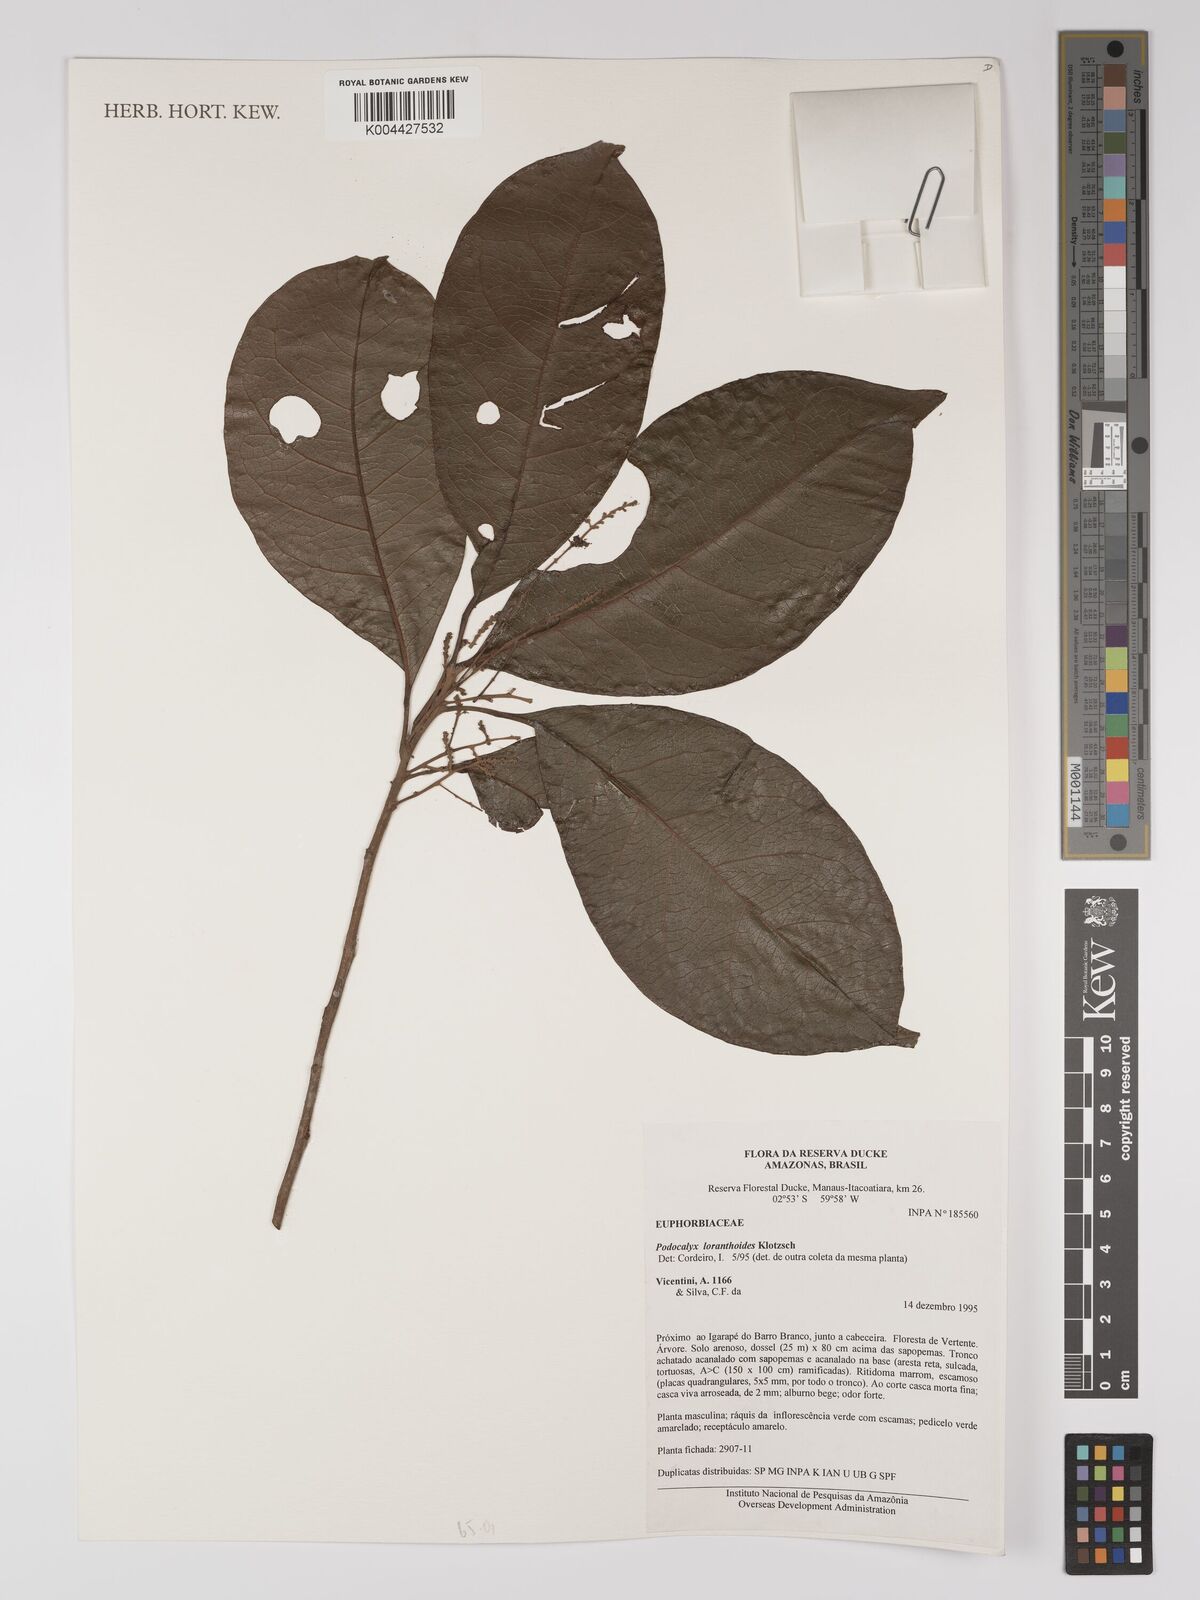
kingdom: Plantae
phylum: Tracheophyta
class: Magnoliopsida
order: Malpighiales
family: Picrodendraceae
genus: Podocalyx
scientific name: Podocalyx loranthoides
